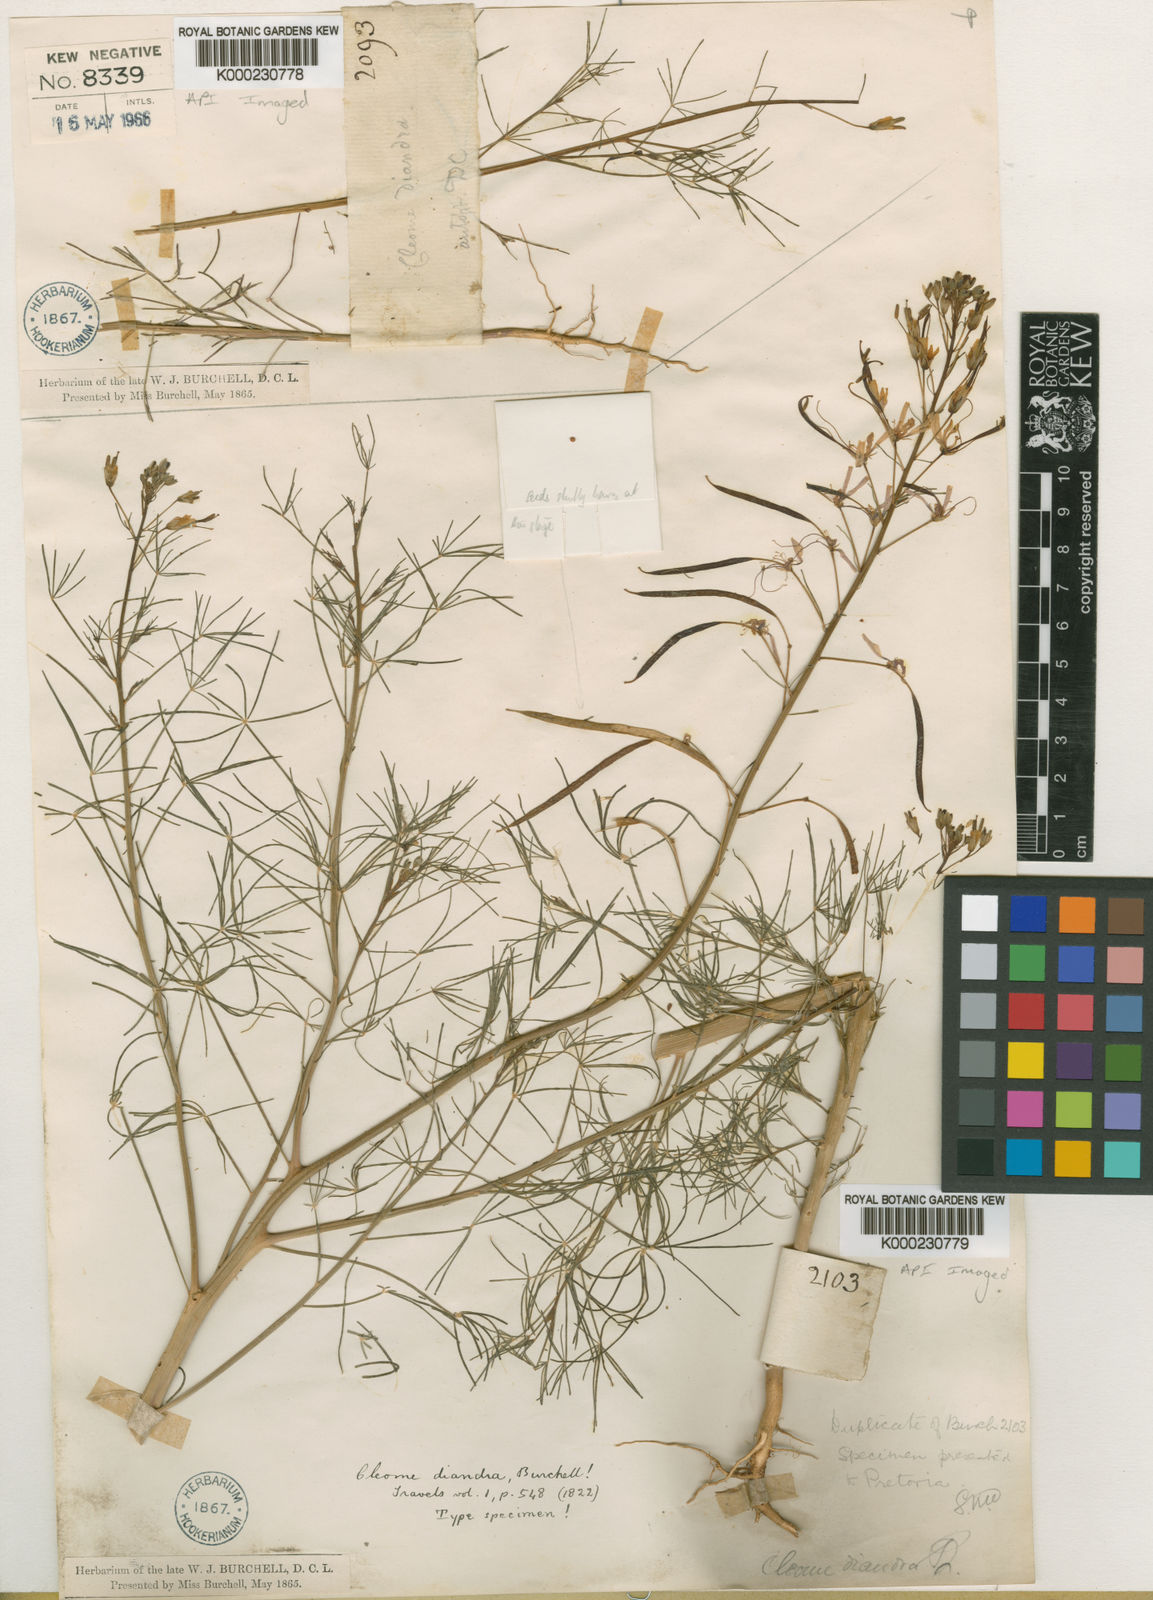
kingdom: Plantae
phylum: Tracheophyta
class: Magnoliopsida
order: Brassicales
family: Cleomaceae
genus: Coalisina
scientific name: Coalisina angustifolia
